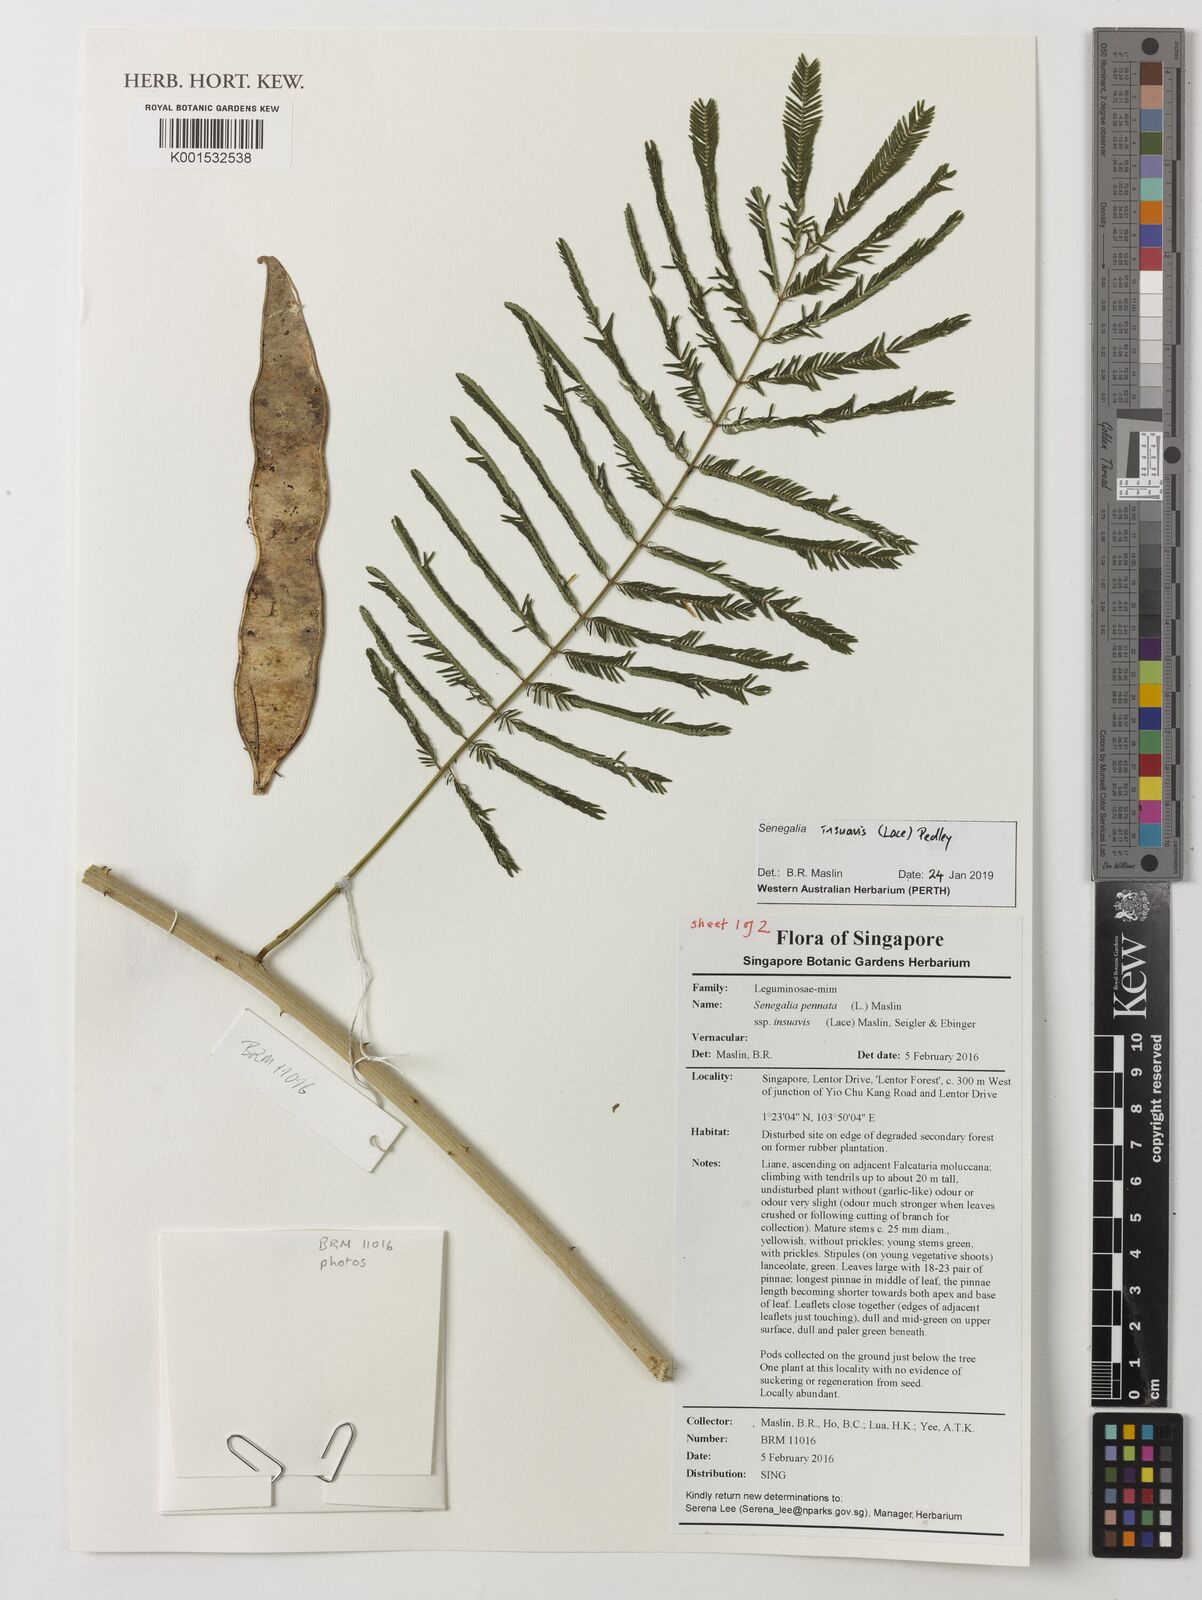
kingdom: Plantae
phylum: Tracheophyta
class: Magnoliopsida
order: Fabales
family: Fabaceae
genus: Senegalia
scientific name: Senegalia pennata
